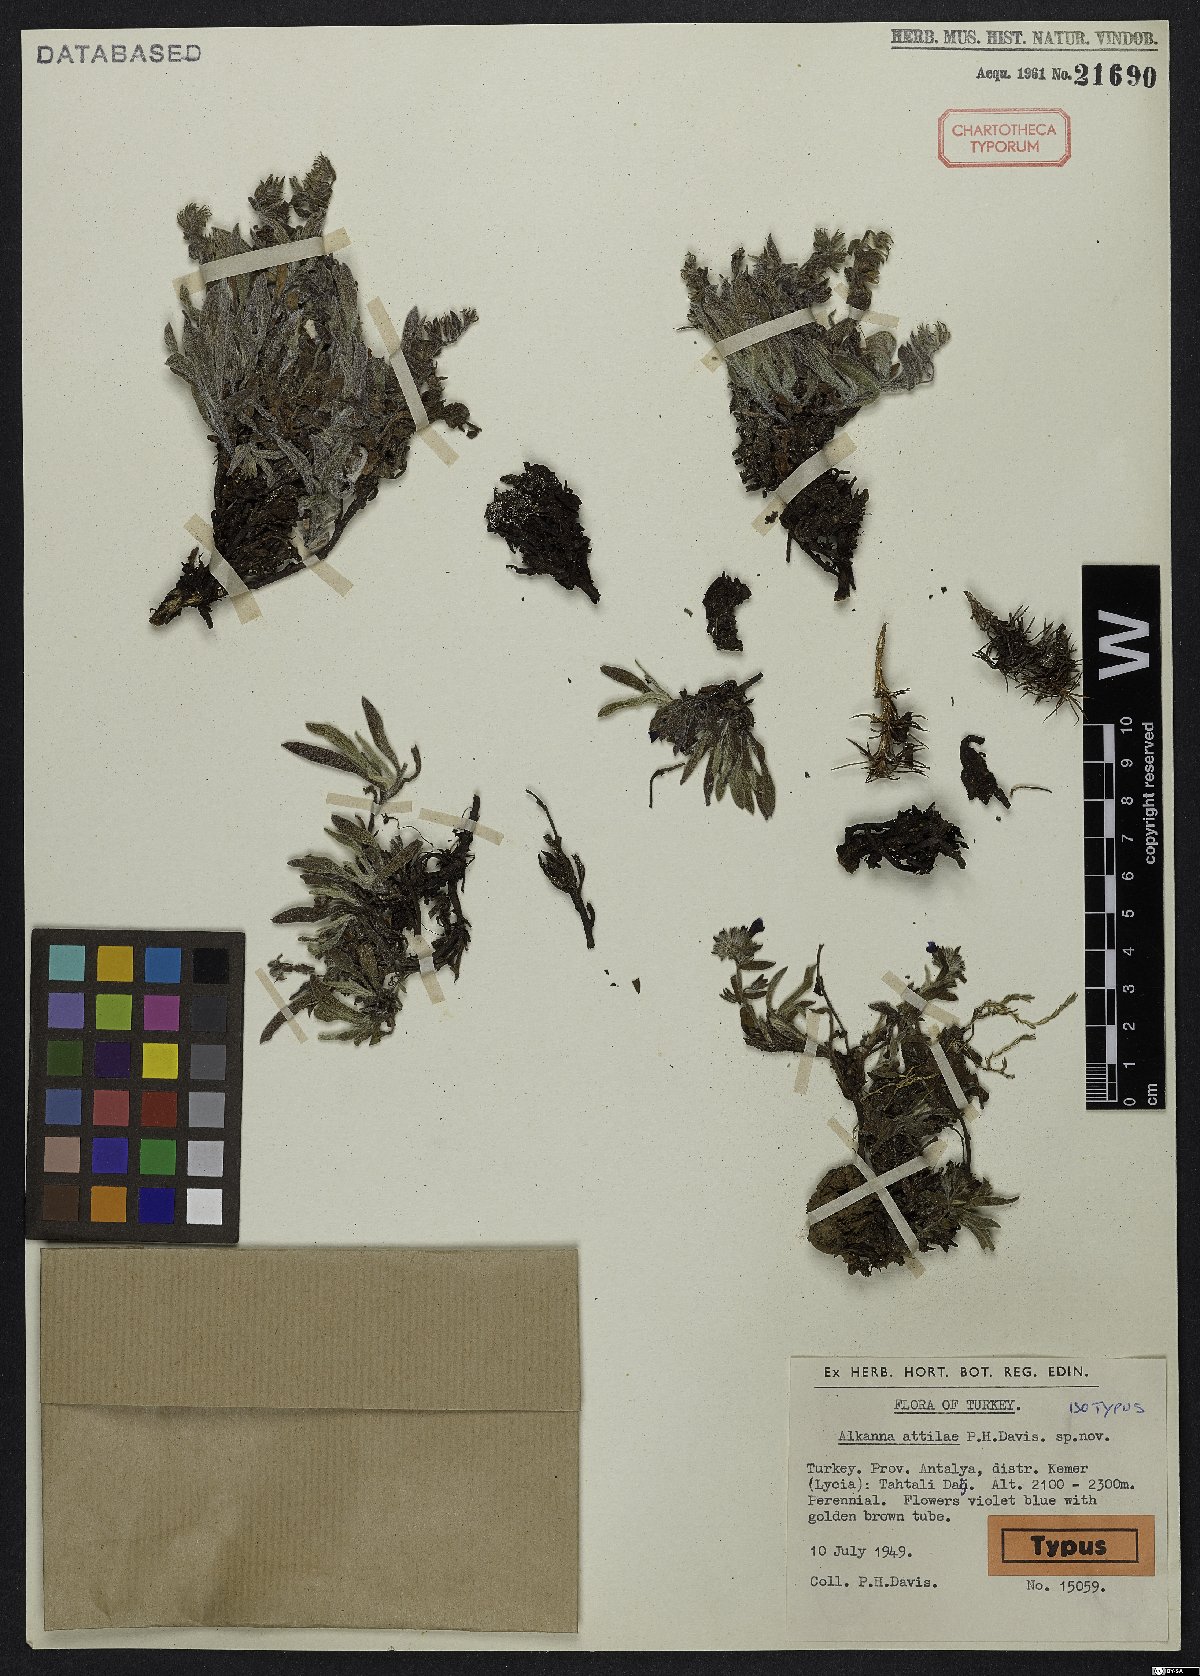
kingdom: Plantae
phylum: Tracheophyta
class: Magnoliopsida
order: Boraginales
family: Boraginaceae
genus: Alkanna
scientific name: Alkanna attilae
